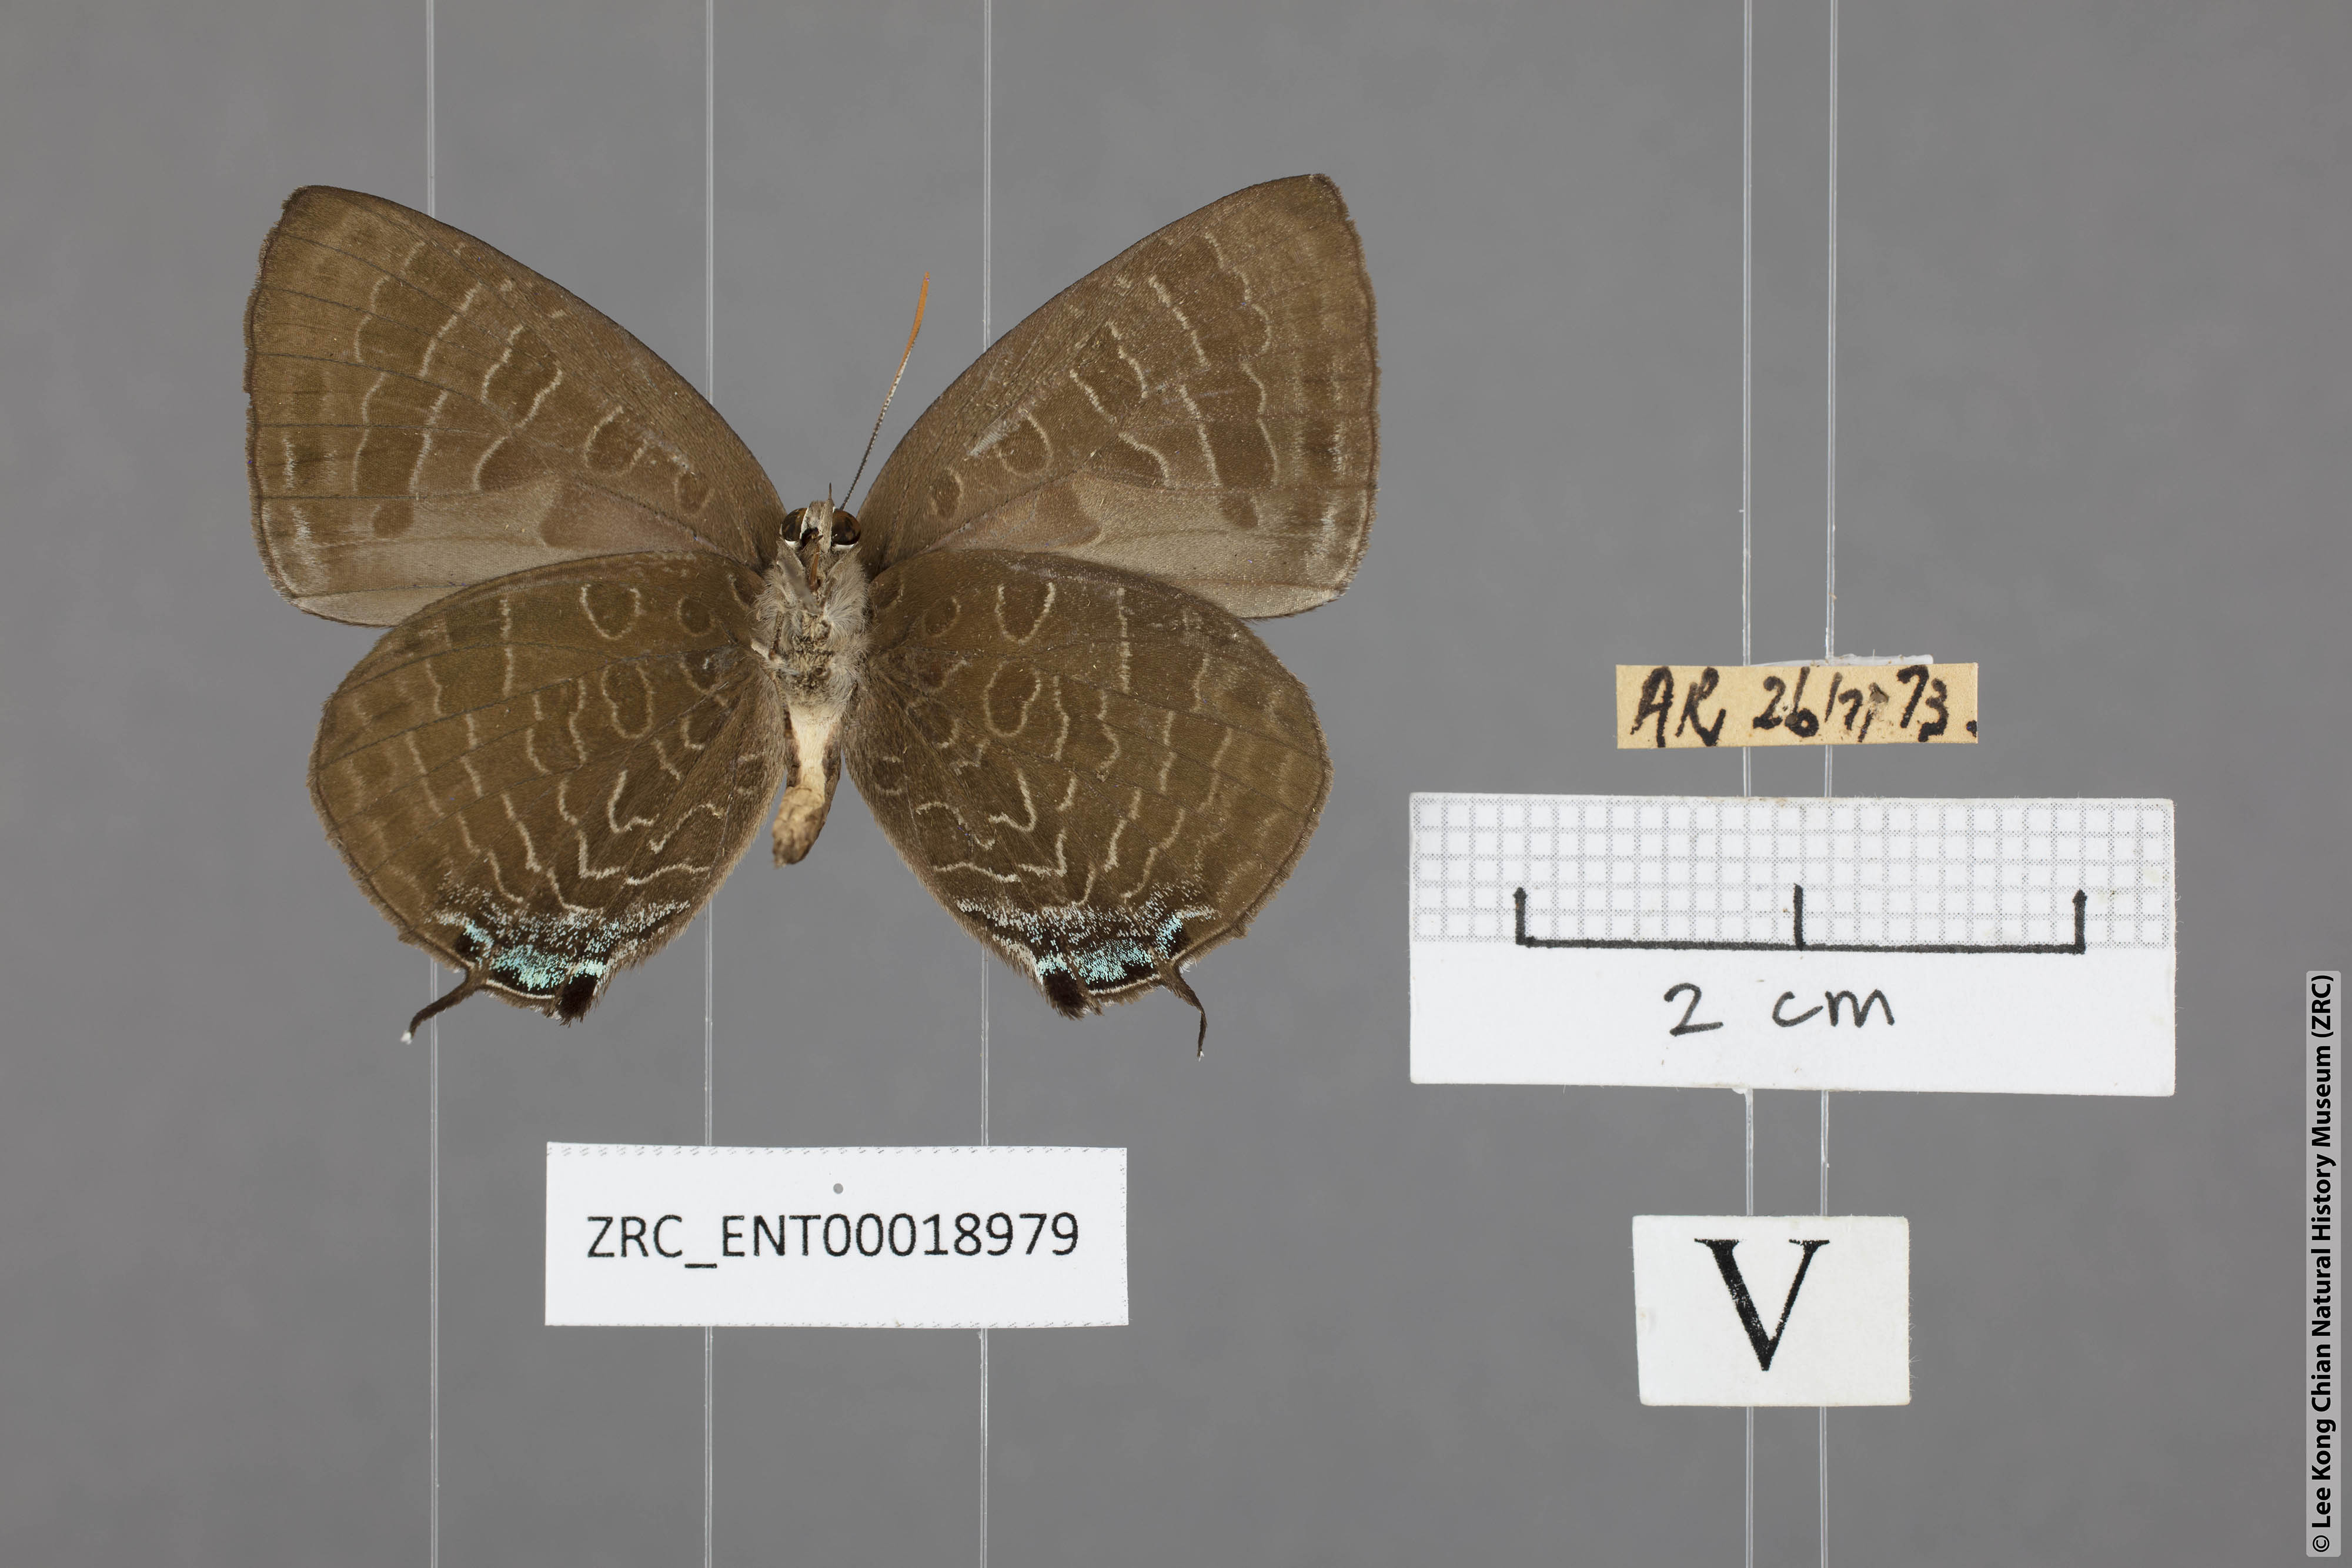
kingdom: Animalia
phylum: Arthropoda
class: Insecta
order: Lepidoptera
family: Lycaenidae
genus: Arhopala
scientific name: Arhopala ace
